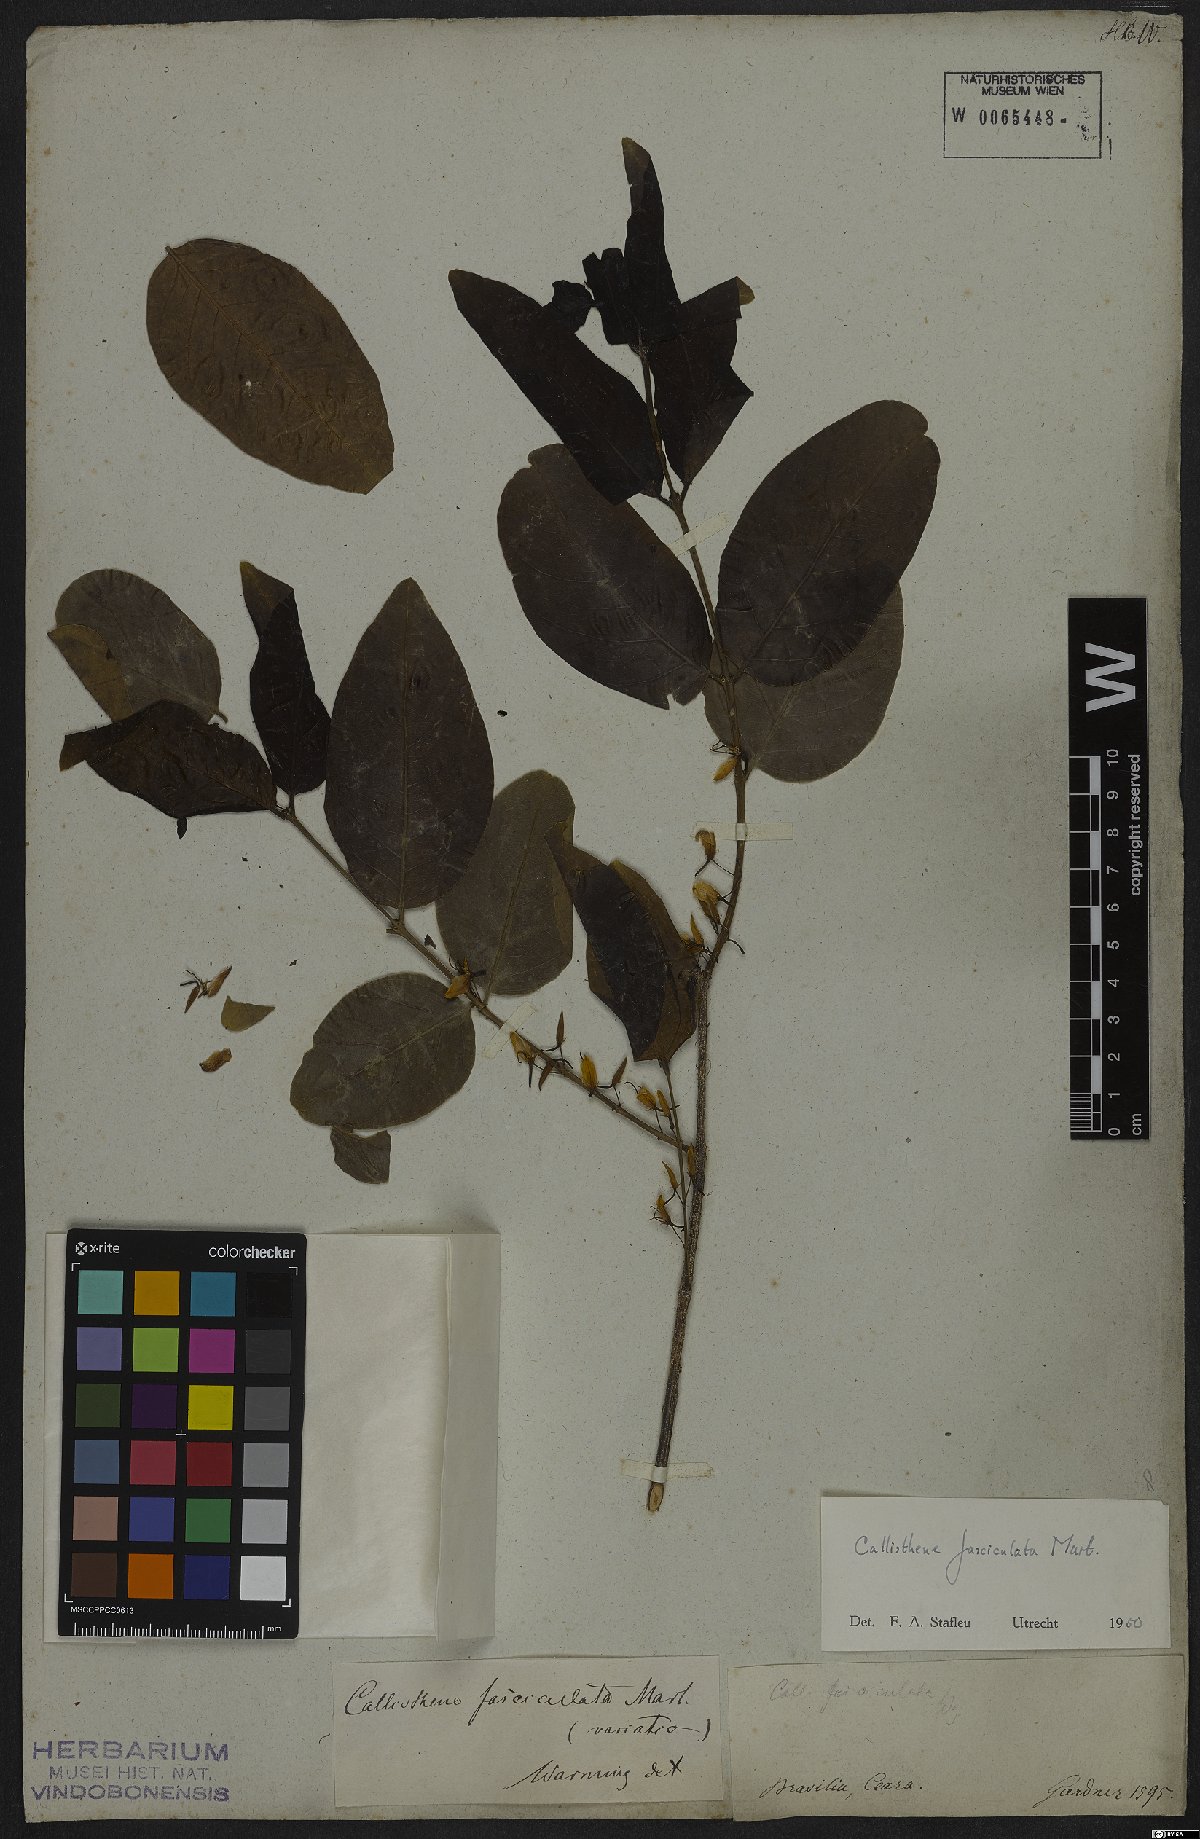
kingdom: Plantae
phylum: Tracheophyta
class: Magnoliopsida
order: Myrtales
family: Vochysiaceae
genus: Callisthene
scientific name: Callisthene fasciculata
